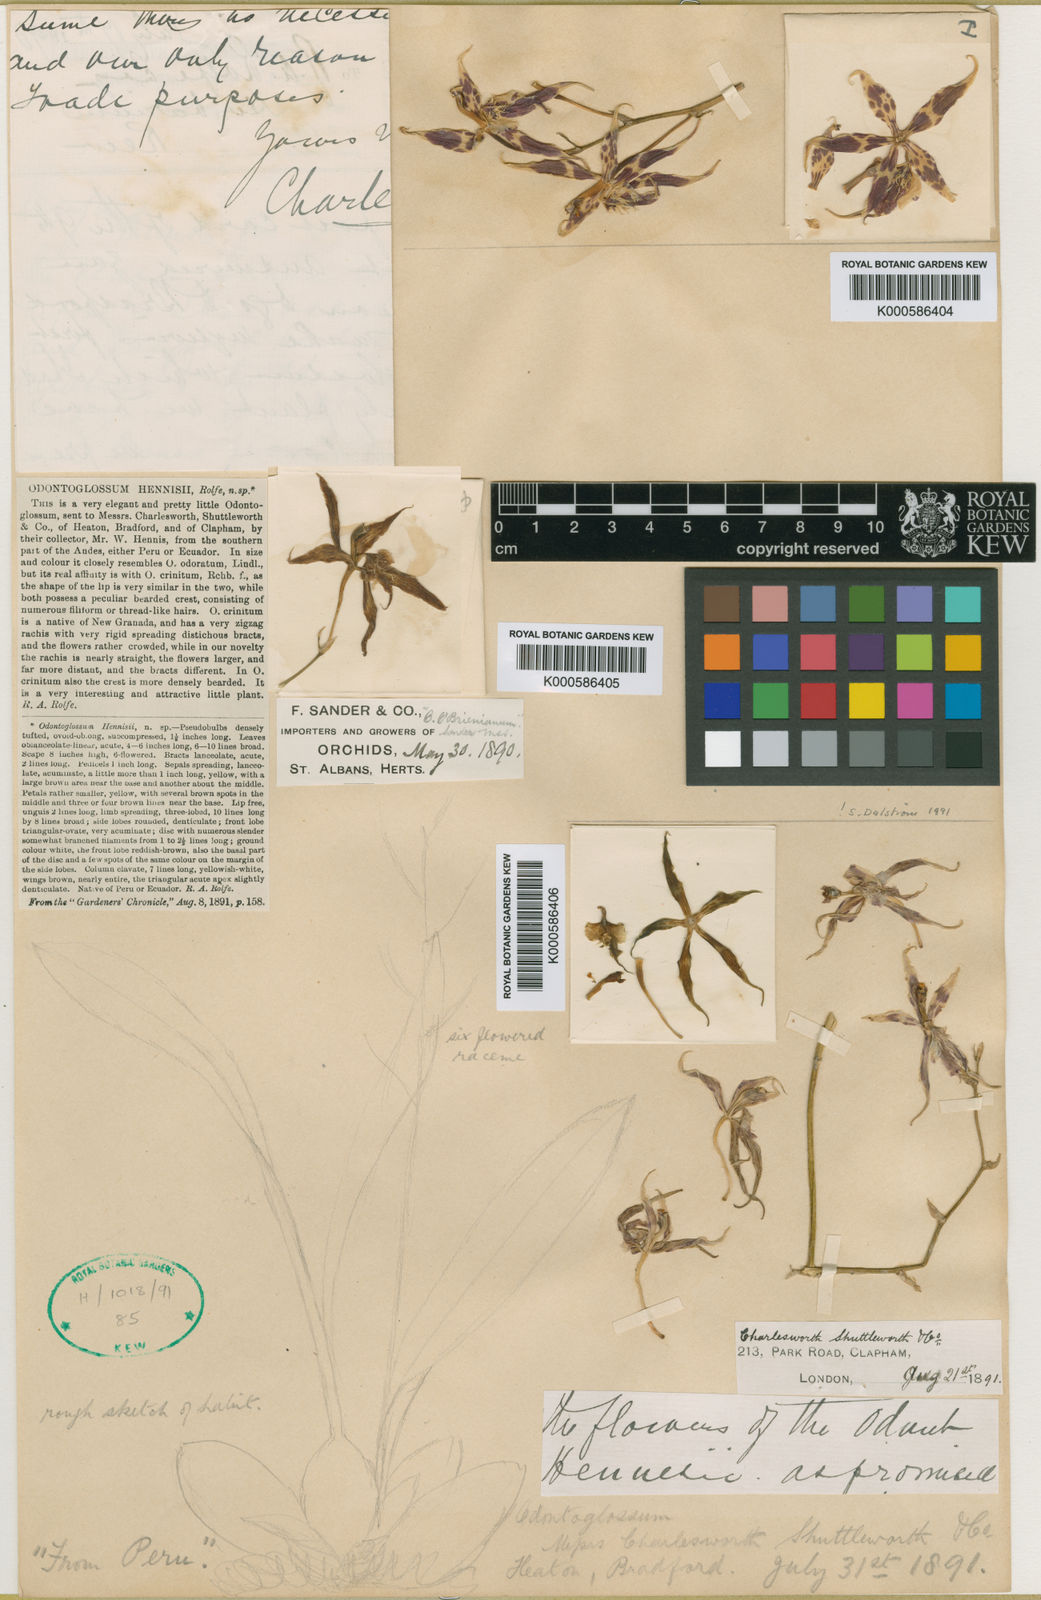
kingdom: Plantae
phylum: Tracheophyta
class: Liliopsida
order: Asparagales
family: Orchidaceae
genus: Oncidium
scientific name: Oncidium hennisii
